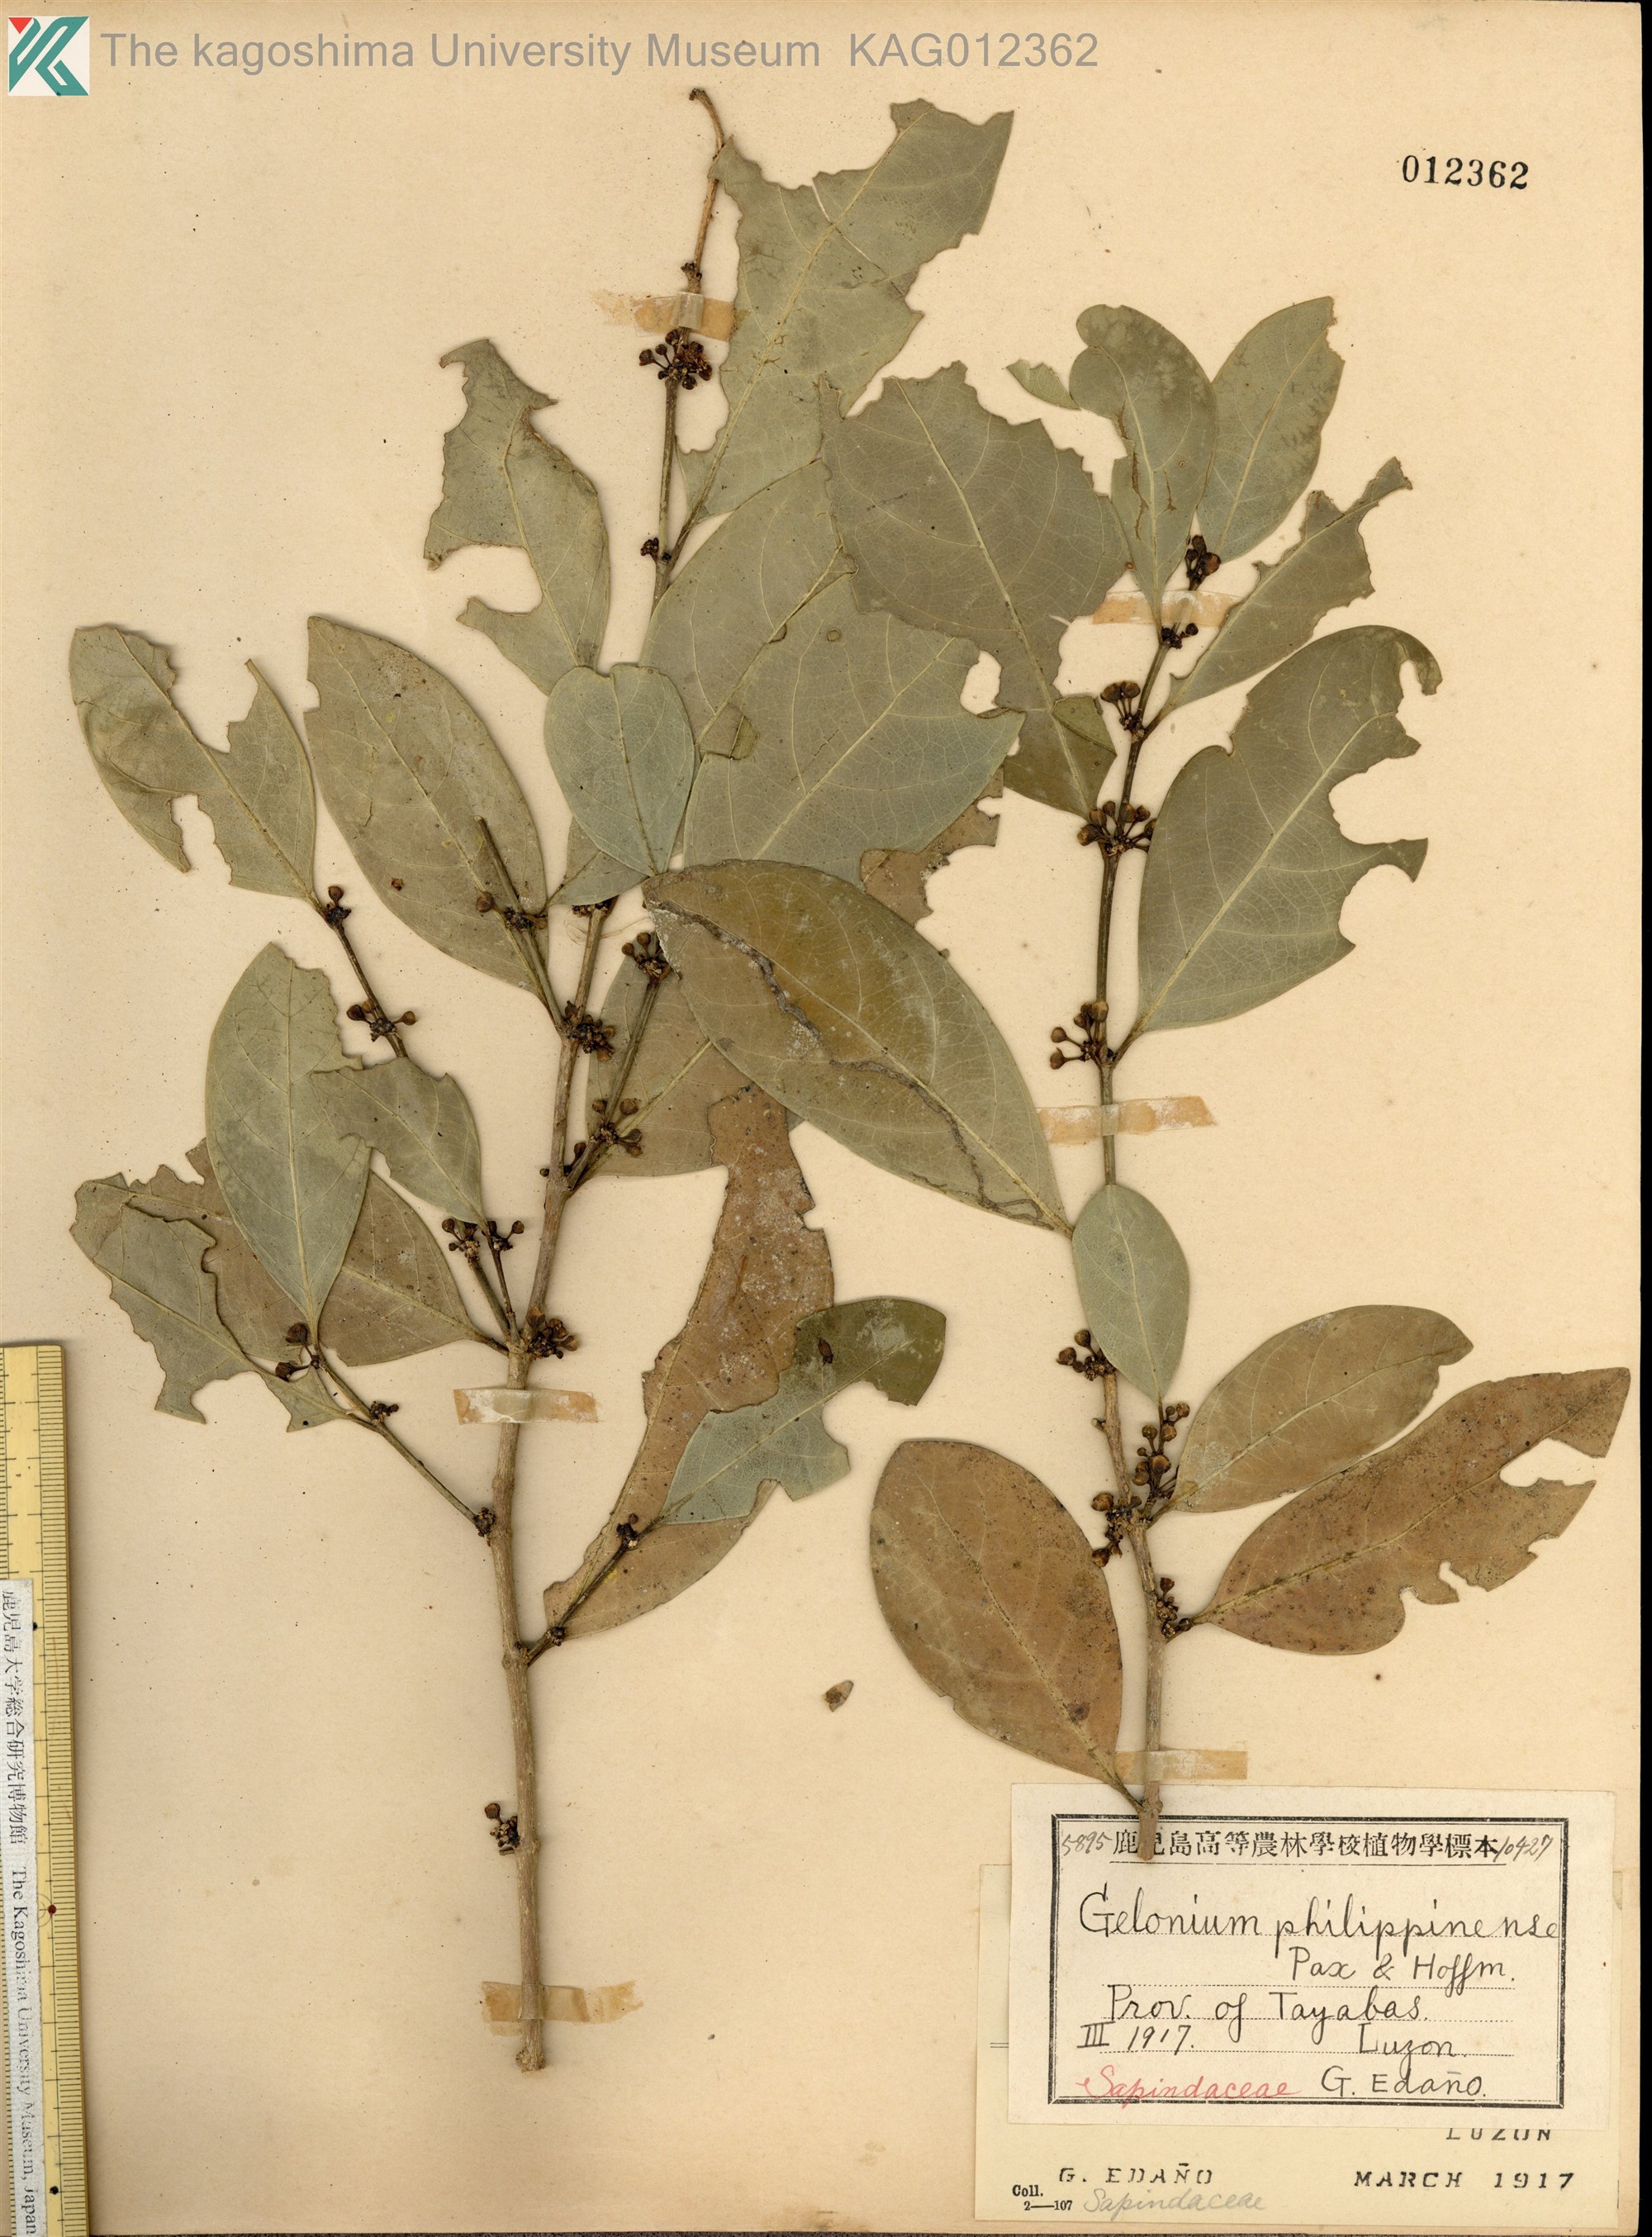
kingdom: Plantae
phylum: Tracheophyta
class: Magnoliopsida
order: Malpighiales
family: Phyllanthaceae
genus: Glochidion
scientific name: Glochidion philippicum
